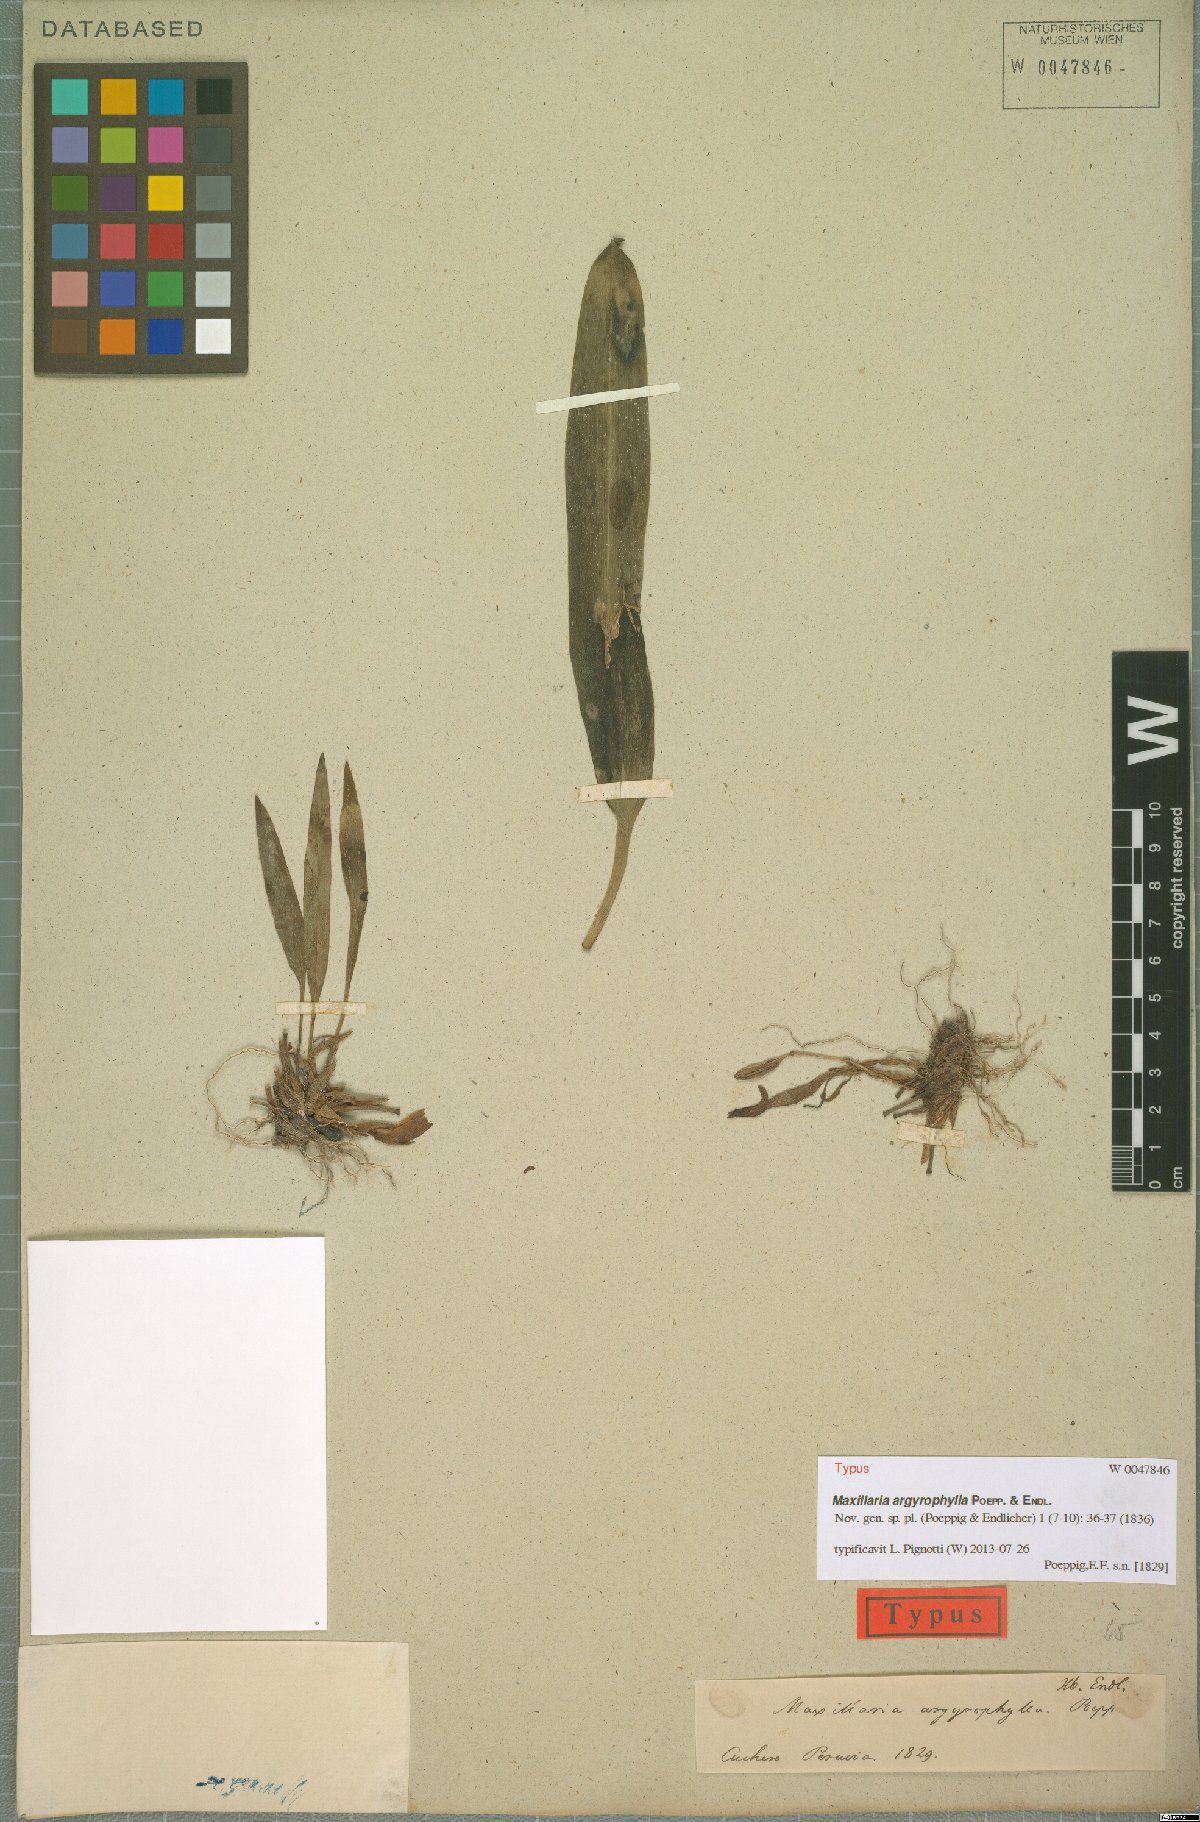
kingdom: Plantae
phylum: Tracheophyta
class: Liliopsida
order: Asparagales
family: Orchidaceae
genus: Maxillaria
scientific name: Maxillaria argyrophylla
